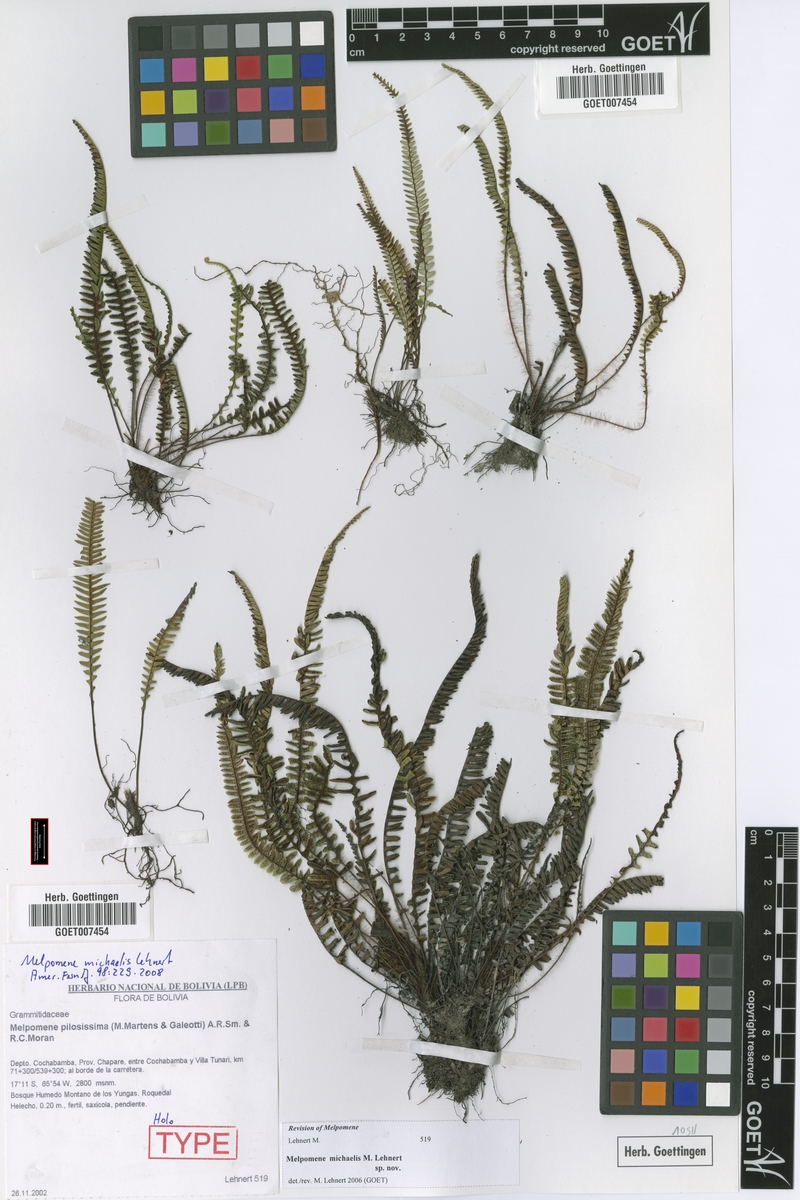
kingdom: Plantae
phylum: Tracheophyta
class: Polypodiopsida
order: Polypodiales
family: Polypodiaceae
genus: Melpomene
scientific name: Melpomene michaelis
